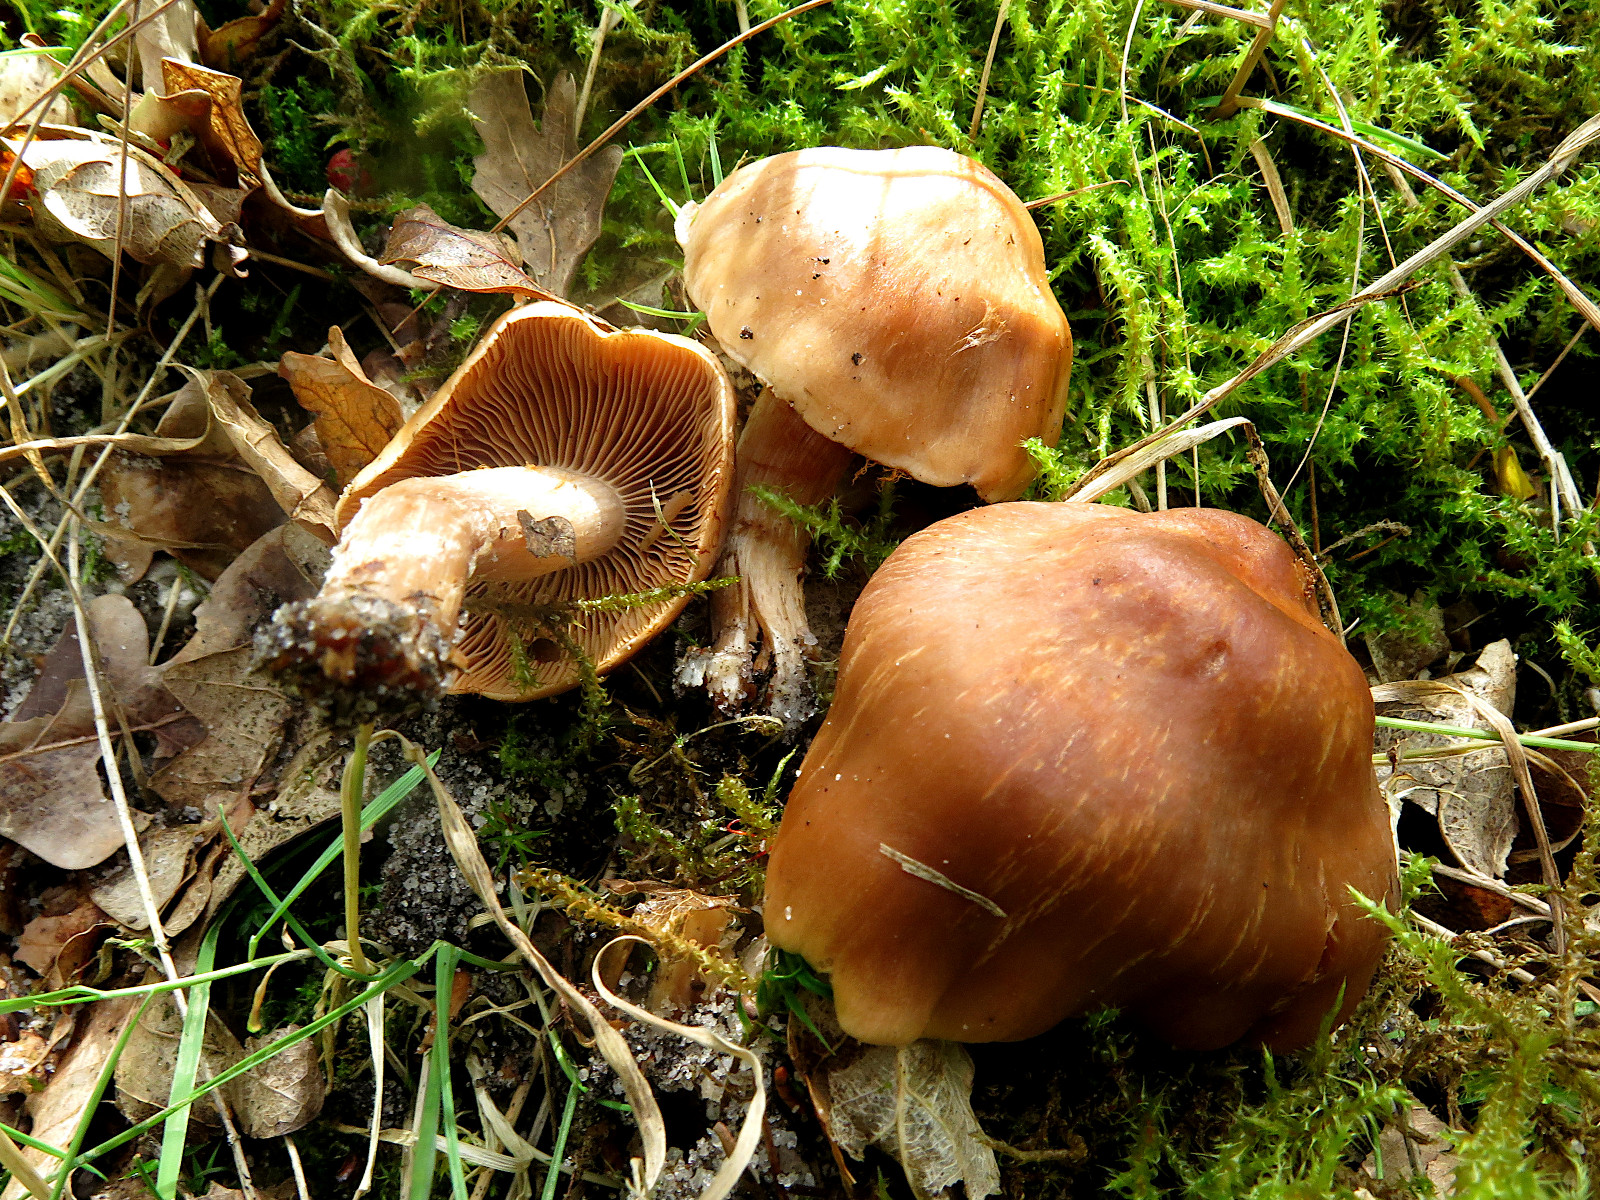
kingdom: Fungi
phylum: Basidiomycota
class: Agaricomycetes
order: Agaricales
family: Cortinariaceae
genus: Cortinarius
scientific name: Cortinarius
